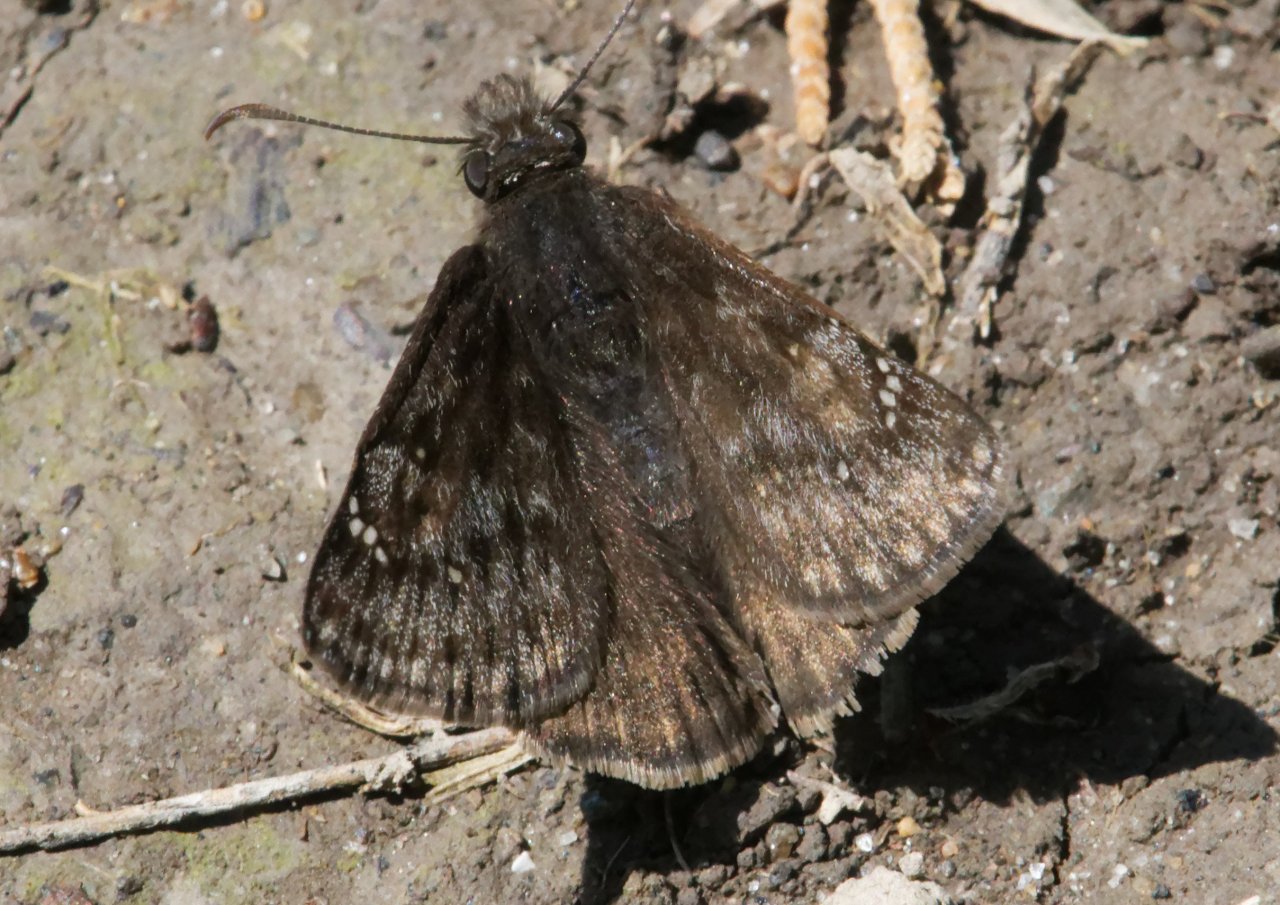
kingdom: Animalia
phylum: Arthropoda
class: Insecta
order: Lepidoptera
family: Hesperiidae
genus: Gesta
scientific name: Gesta
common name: Juvenal's Duskywing
